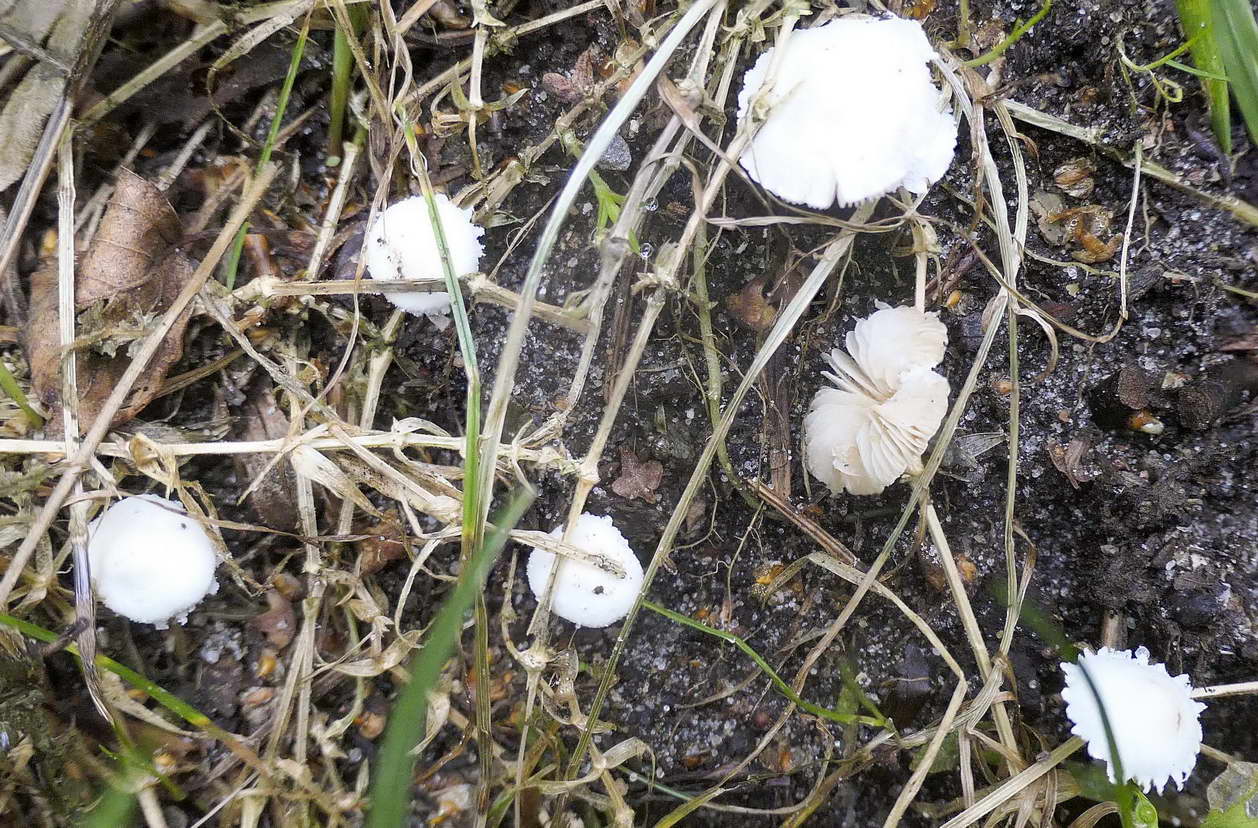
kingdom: Fungi
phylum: Basidiomycota
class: Agaricomycetes
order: Agaricales
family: Agaricaceae
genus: Cystolepiota
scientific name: Cystolepiota seminuda
